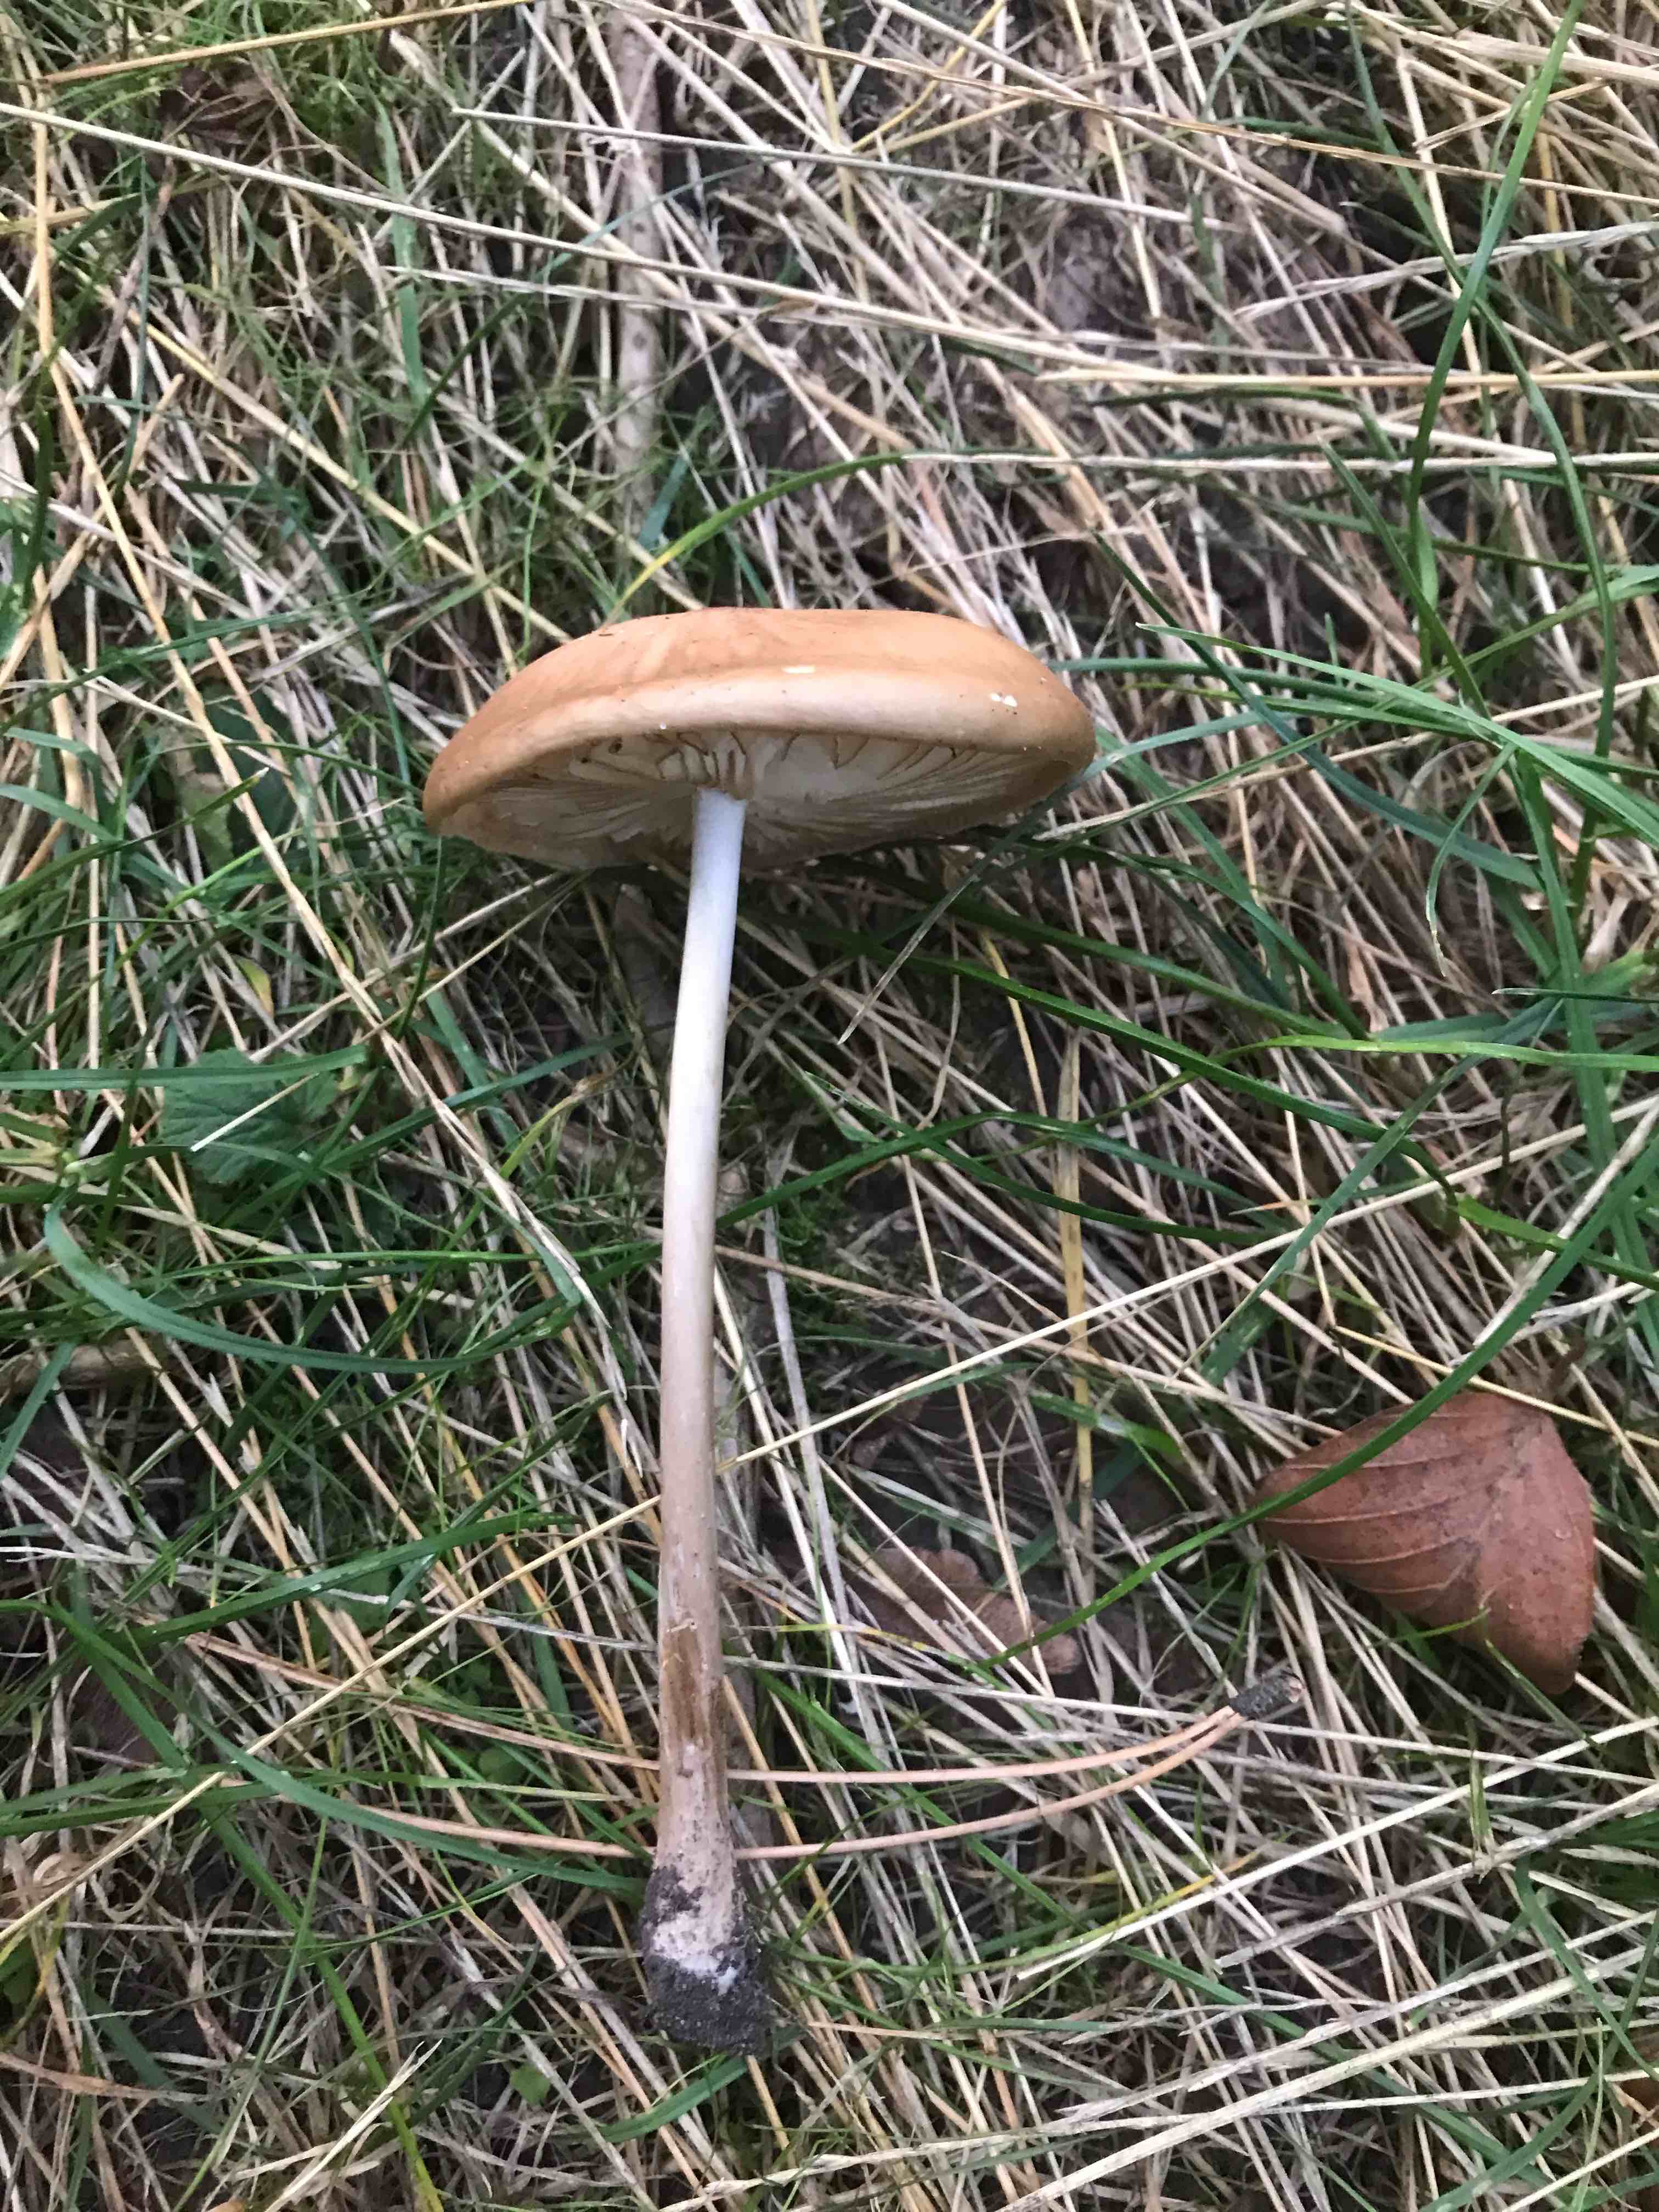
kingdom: Fungi
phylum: Basidiomycota
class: Agaricomycetes
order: Agaricales
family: Physalacriaceae
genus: Hymenopellis
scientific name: Hymenopellis radicata
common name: almindelig pælerodshat
